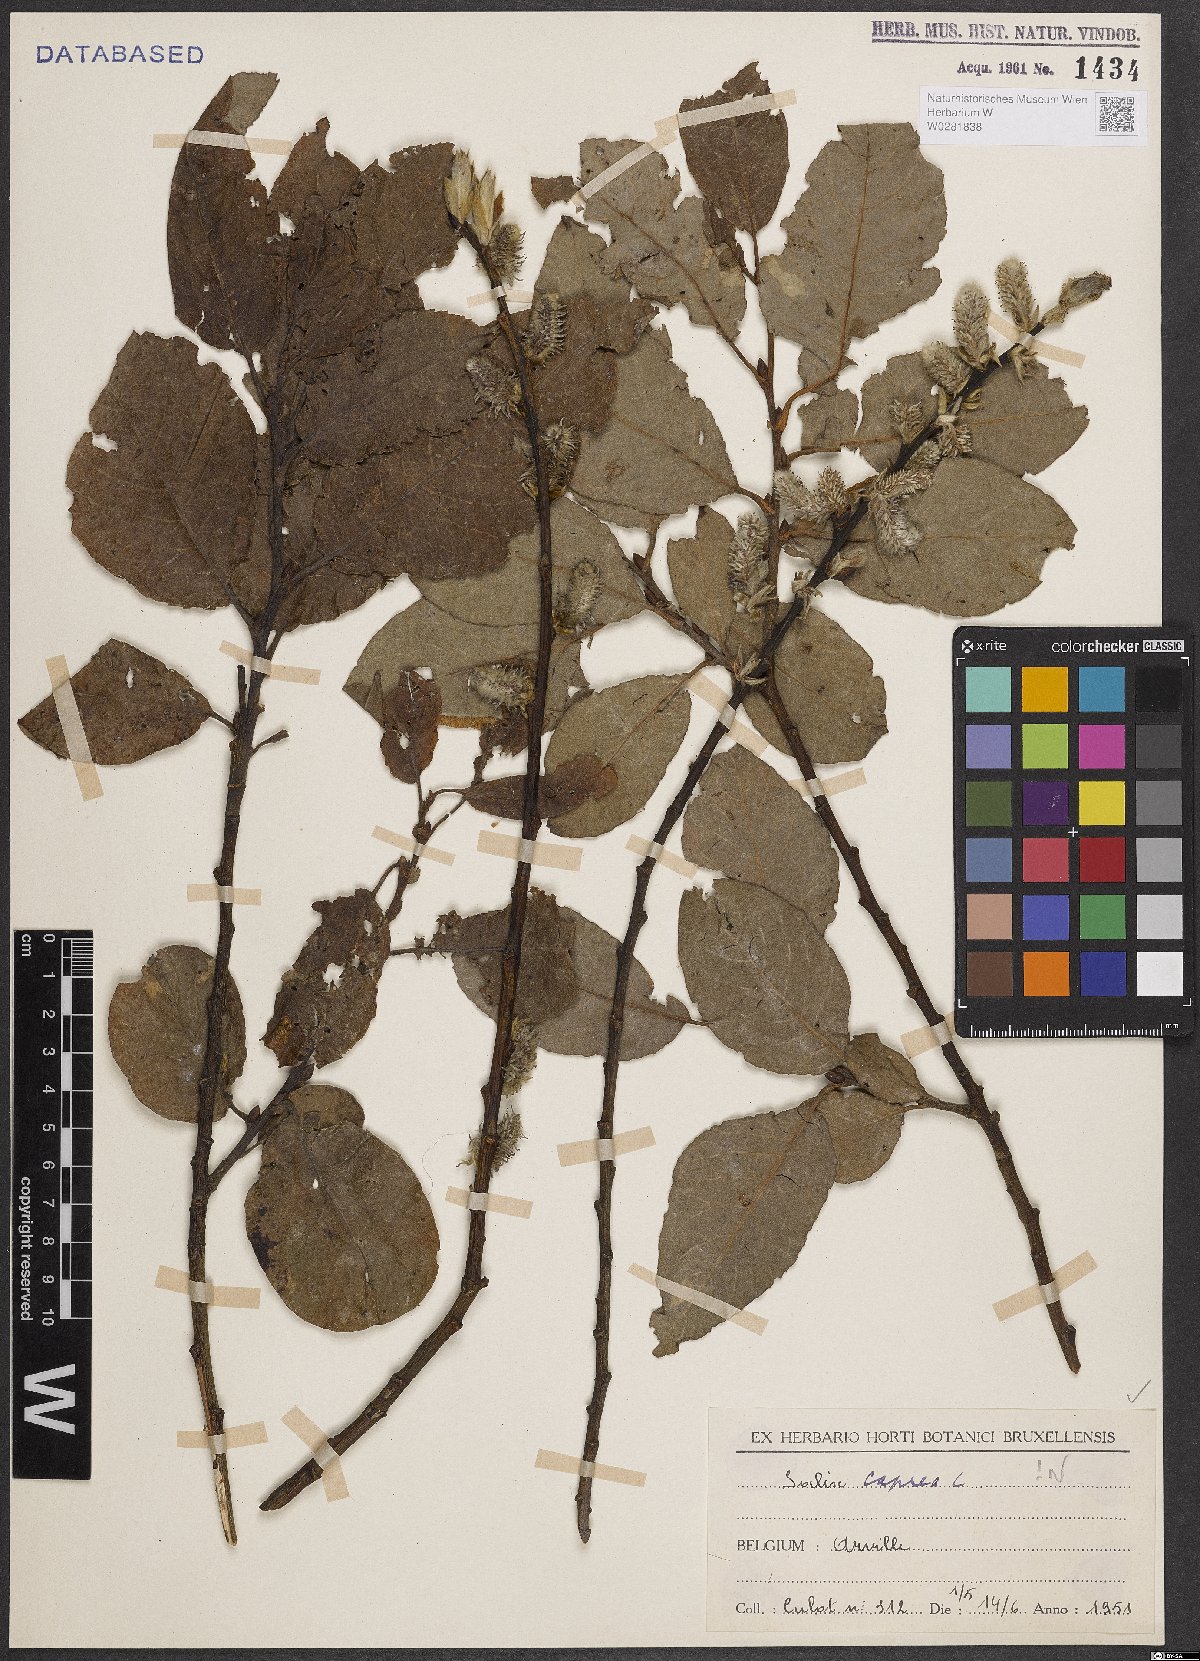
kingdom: Plantae
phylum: Tracheophyta
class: Magnoliopsida
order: Malpighiales
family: Salicaceae
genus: Salix
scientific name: Salix caprea
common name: Goat willow
